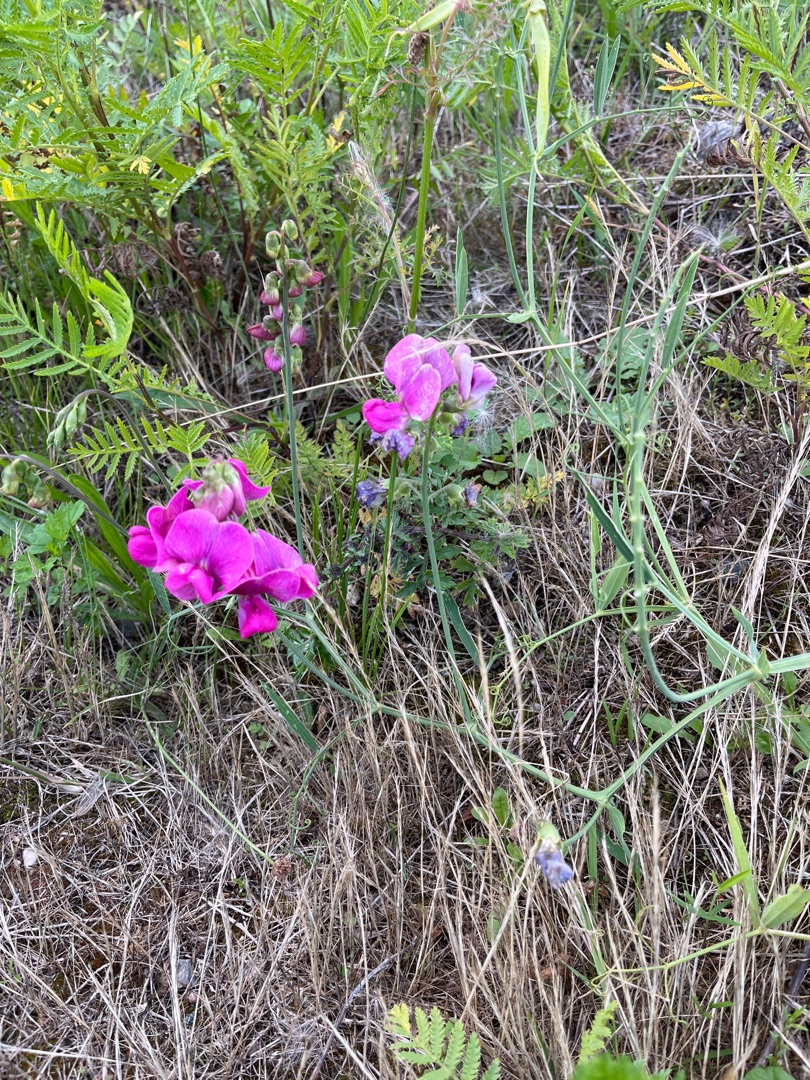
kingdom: Plantae
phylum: Tracheophyta
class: Magnoliopsida
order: Fabales
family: Fabaceae
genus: Lathyrus
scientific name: Lathyrus latifolius
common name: Flerårig ærteblomst
